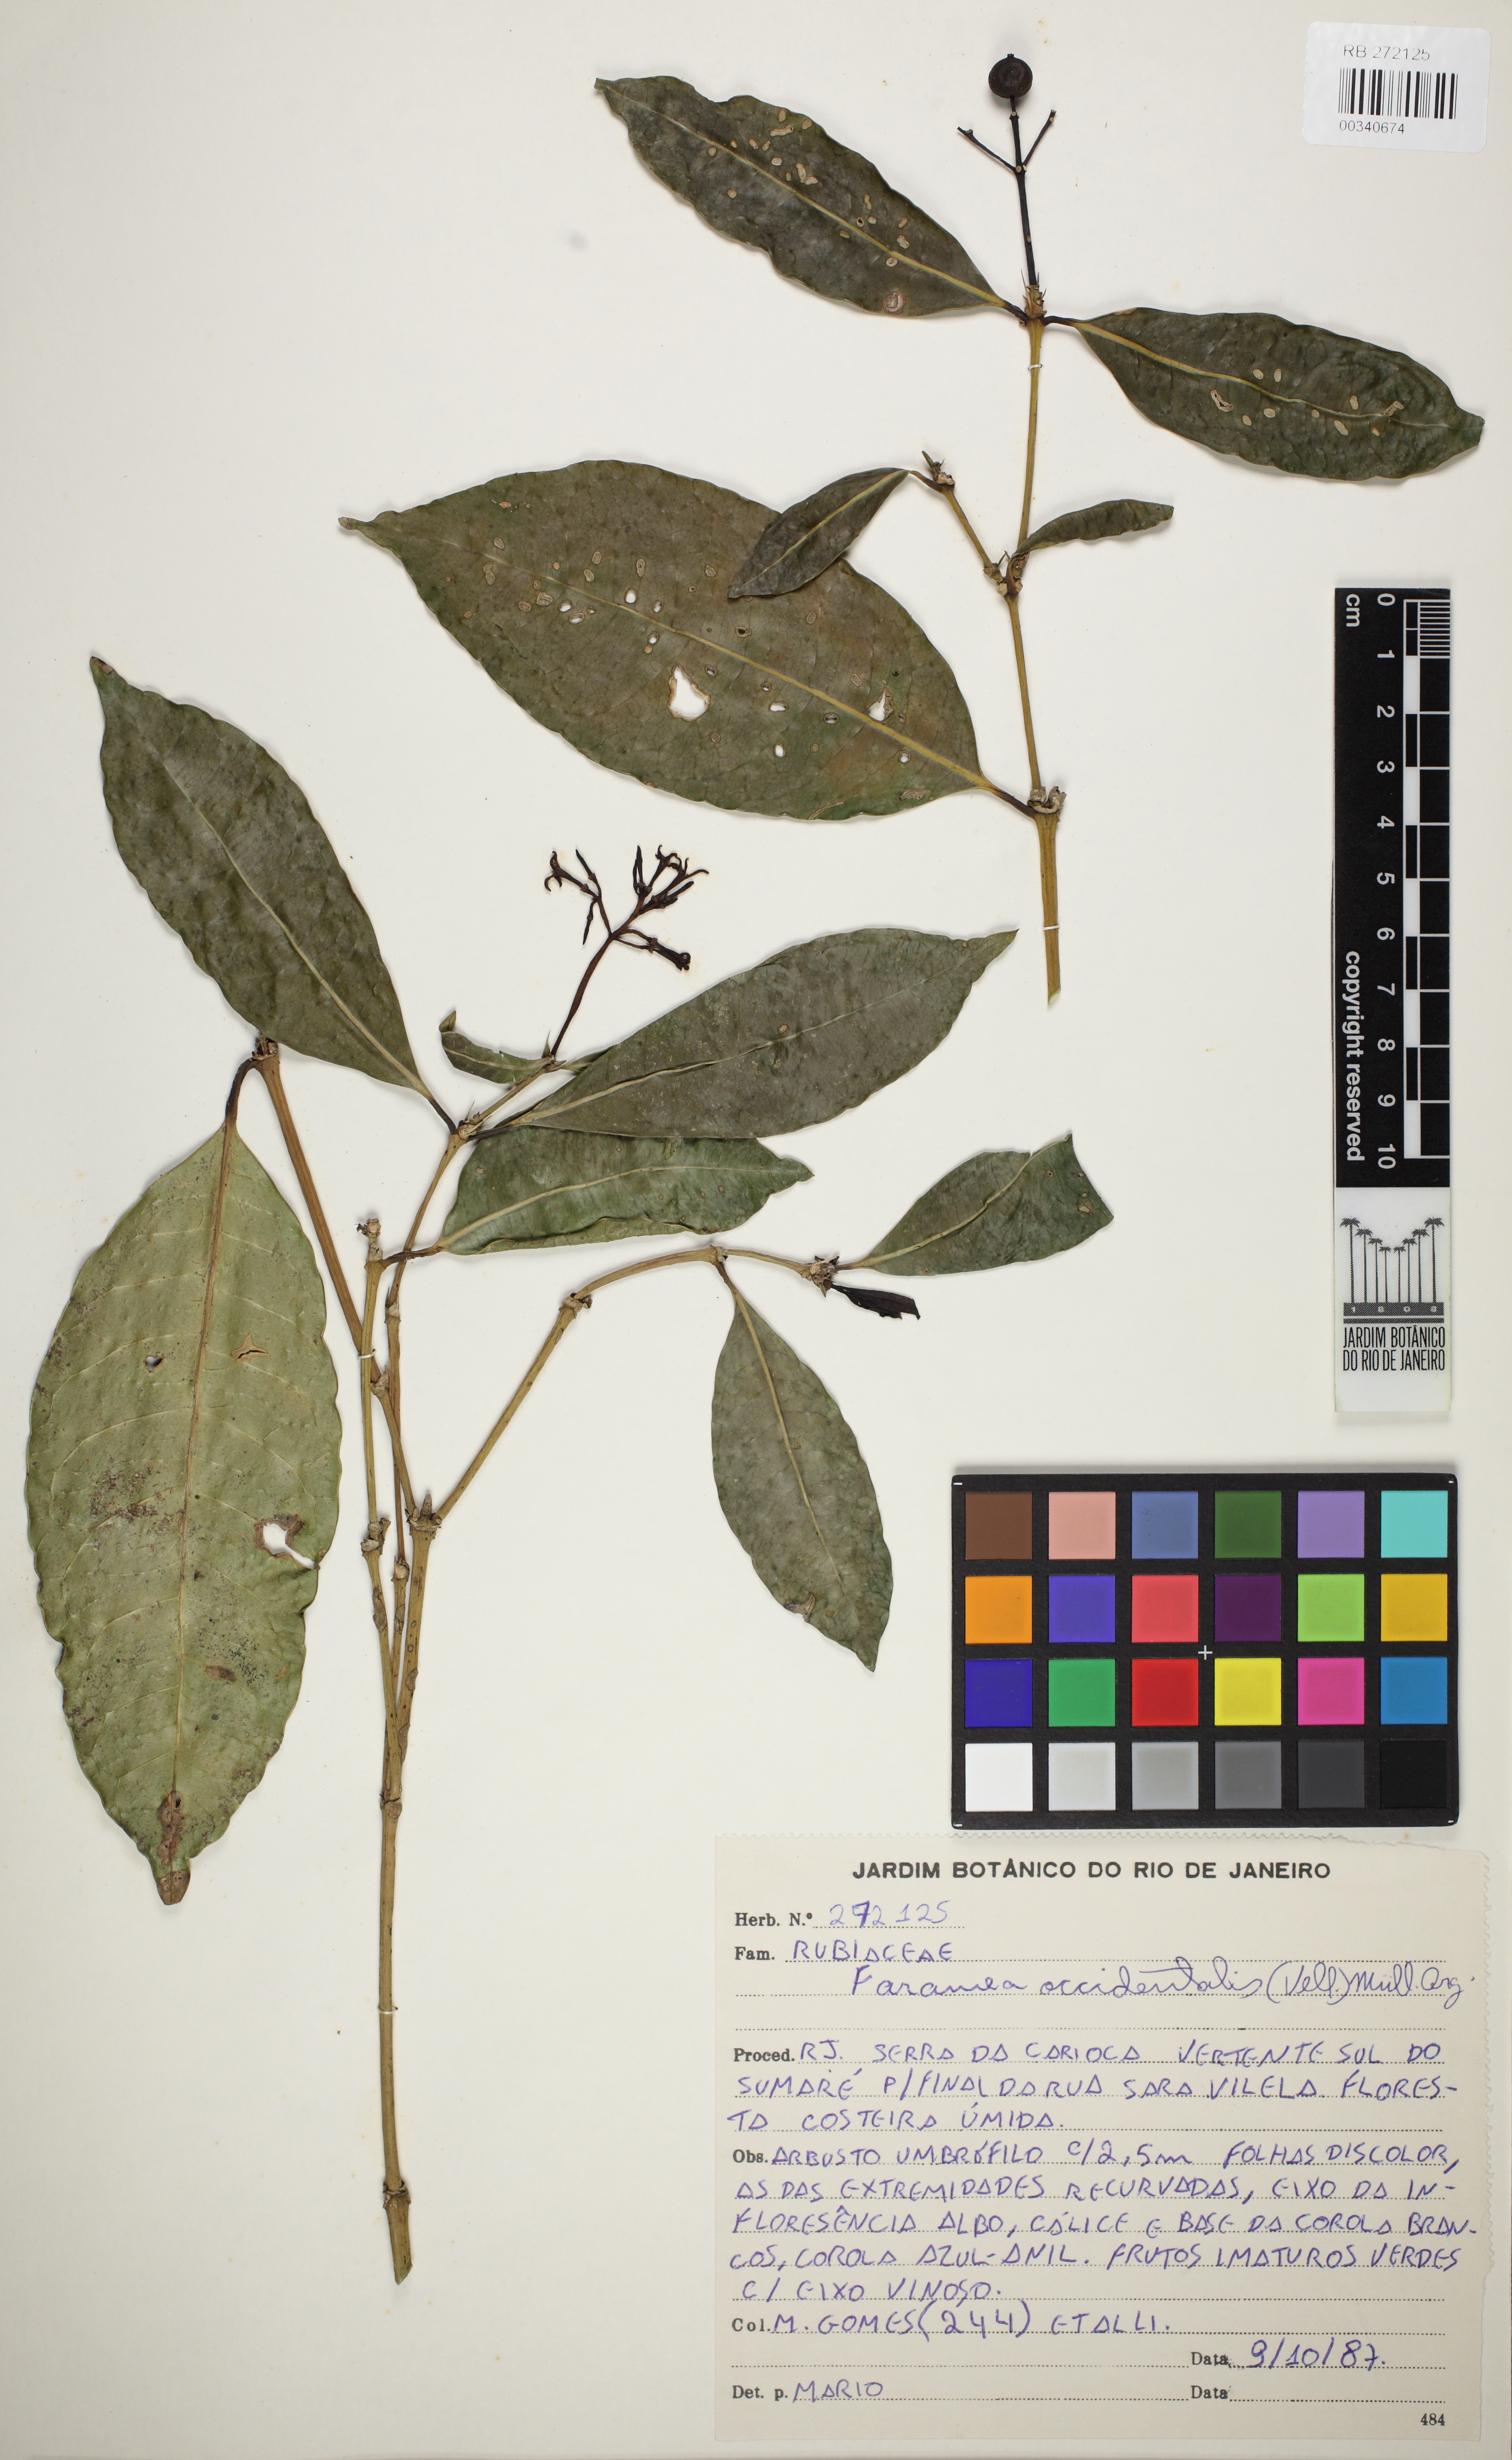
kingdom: Plantae
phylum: Tracheophyta
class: Magnoliopsida
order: Gentianales
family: Rubiaceae
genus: Faramea
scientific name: Faramea tenuiflora
